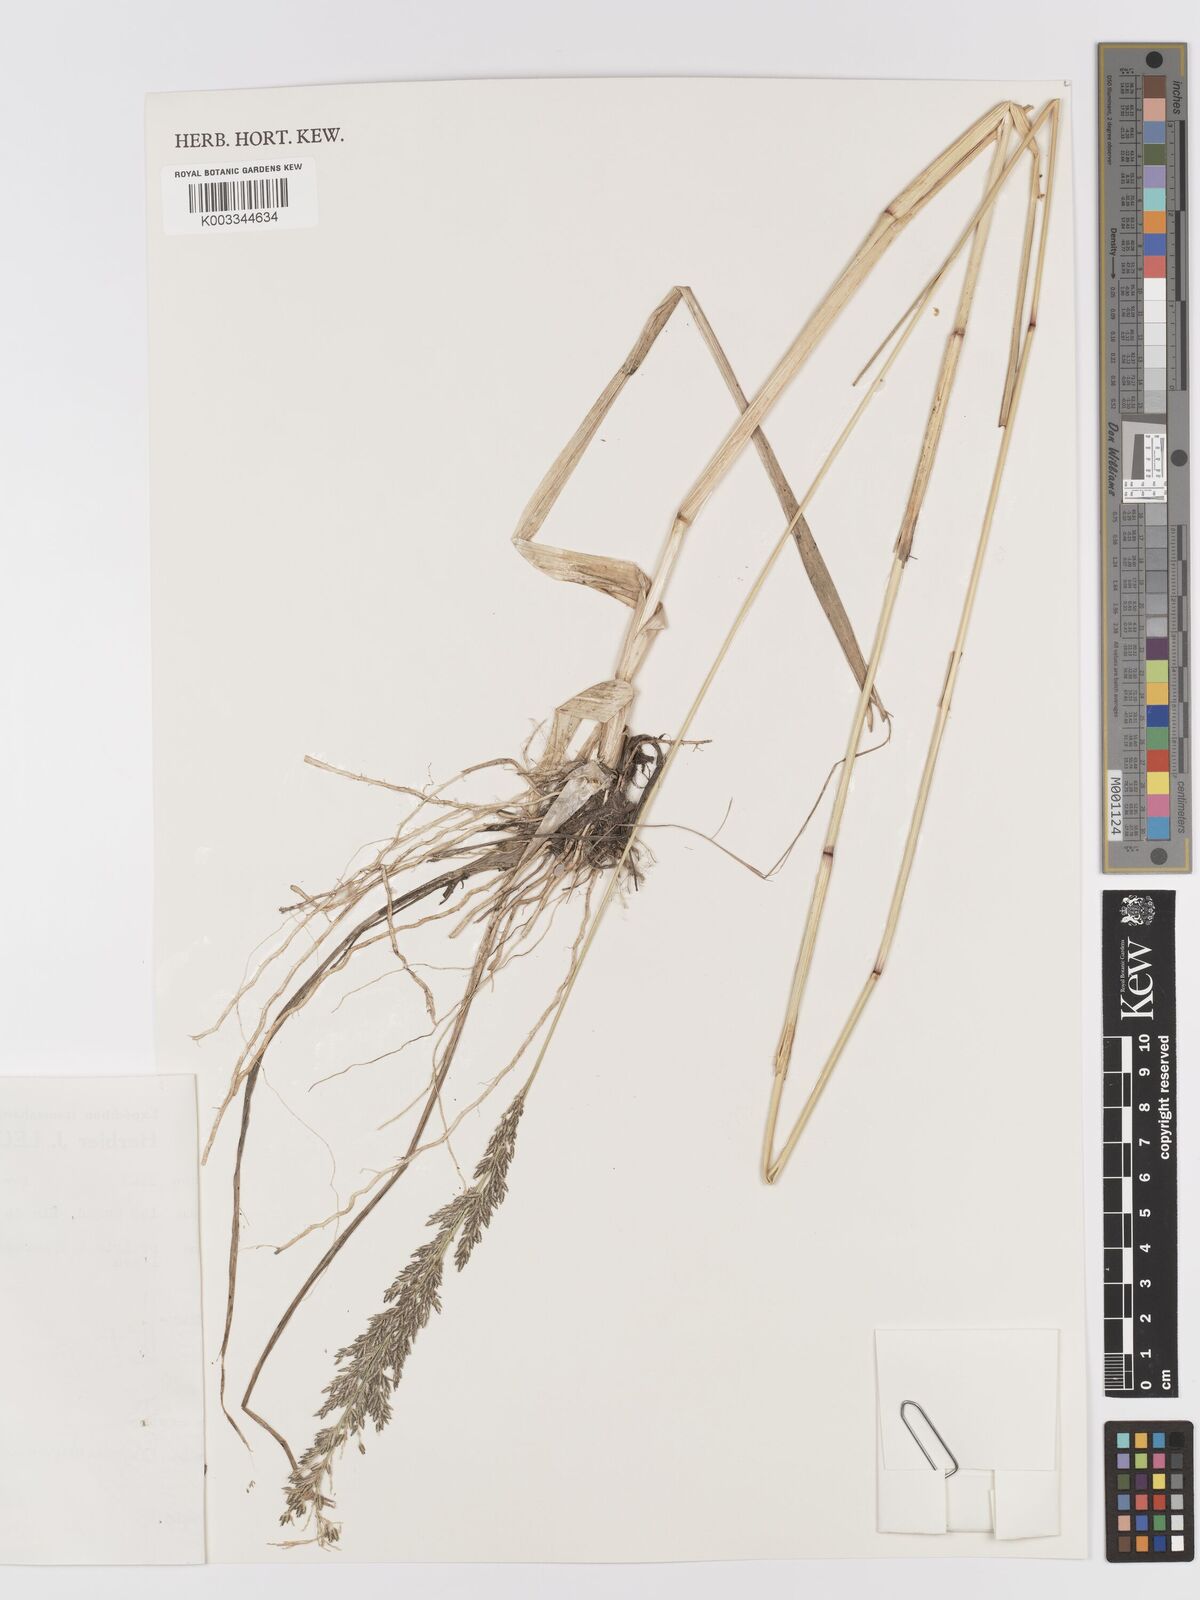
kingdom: Plantae
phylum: Tracheophyta
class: Liliopsida
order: Poales
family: Poaceae
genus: Eragrostis
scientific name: Eragrostis
